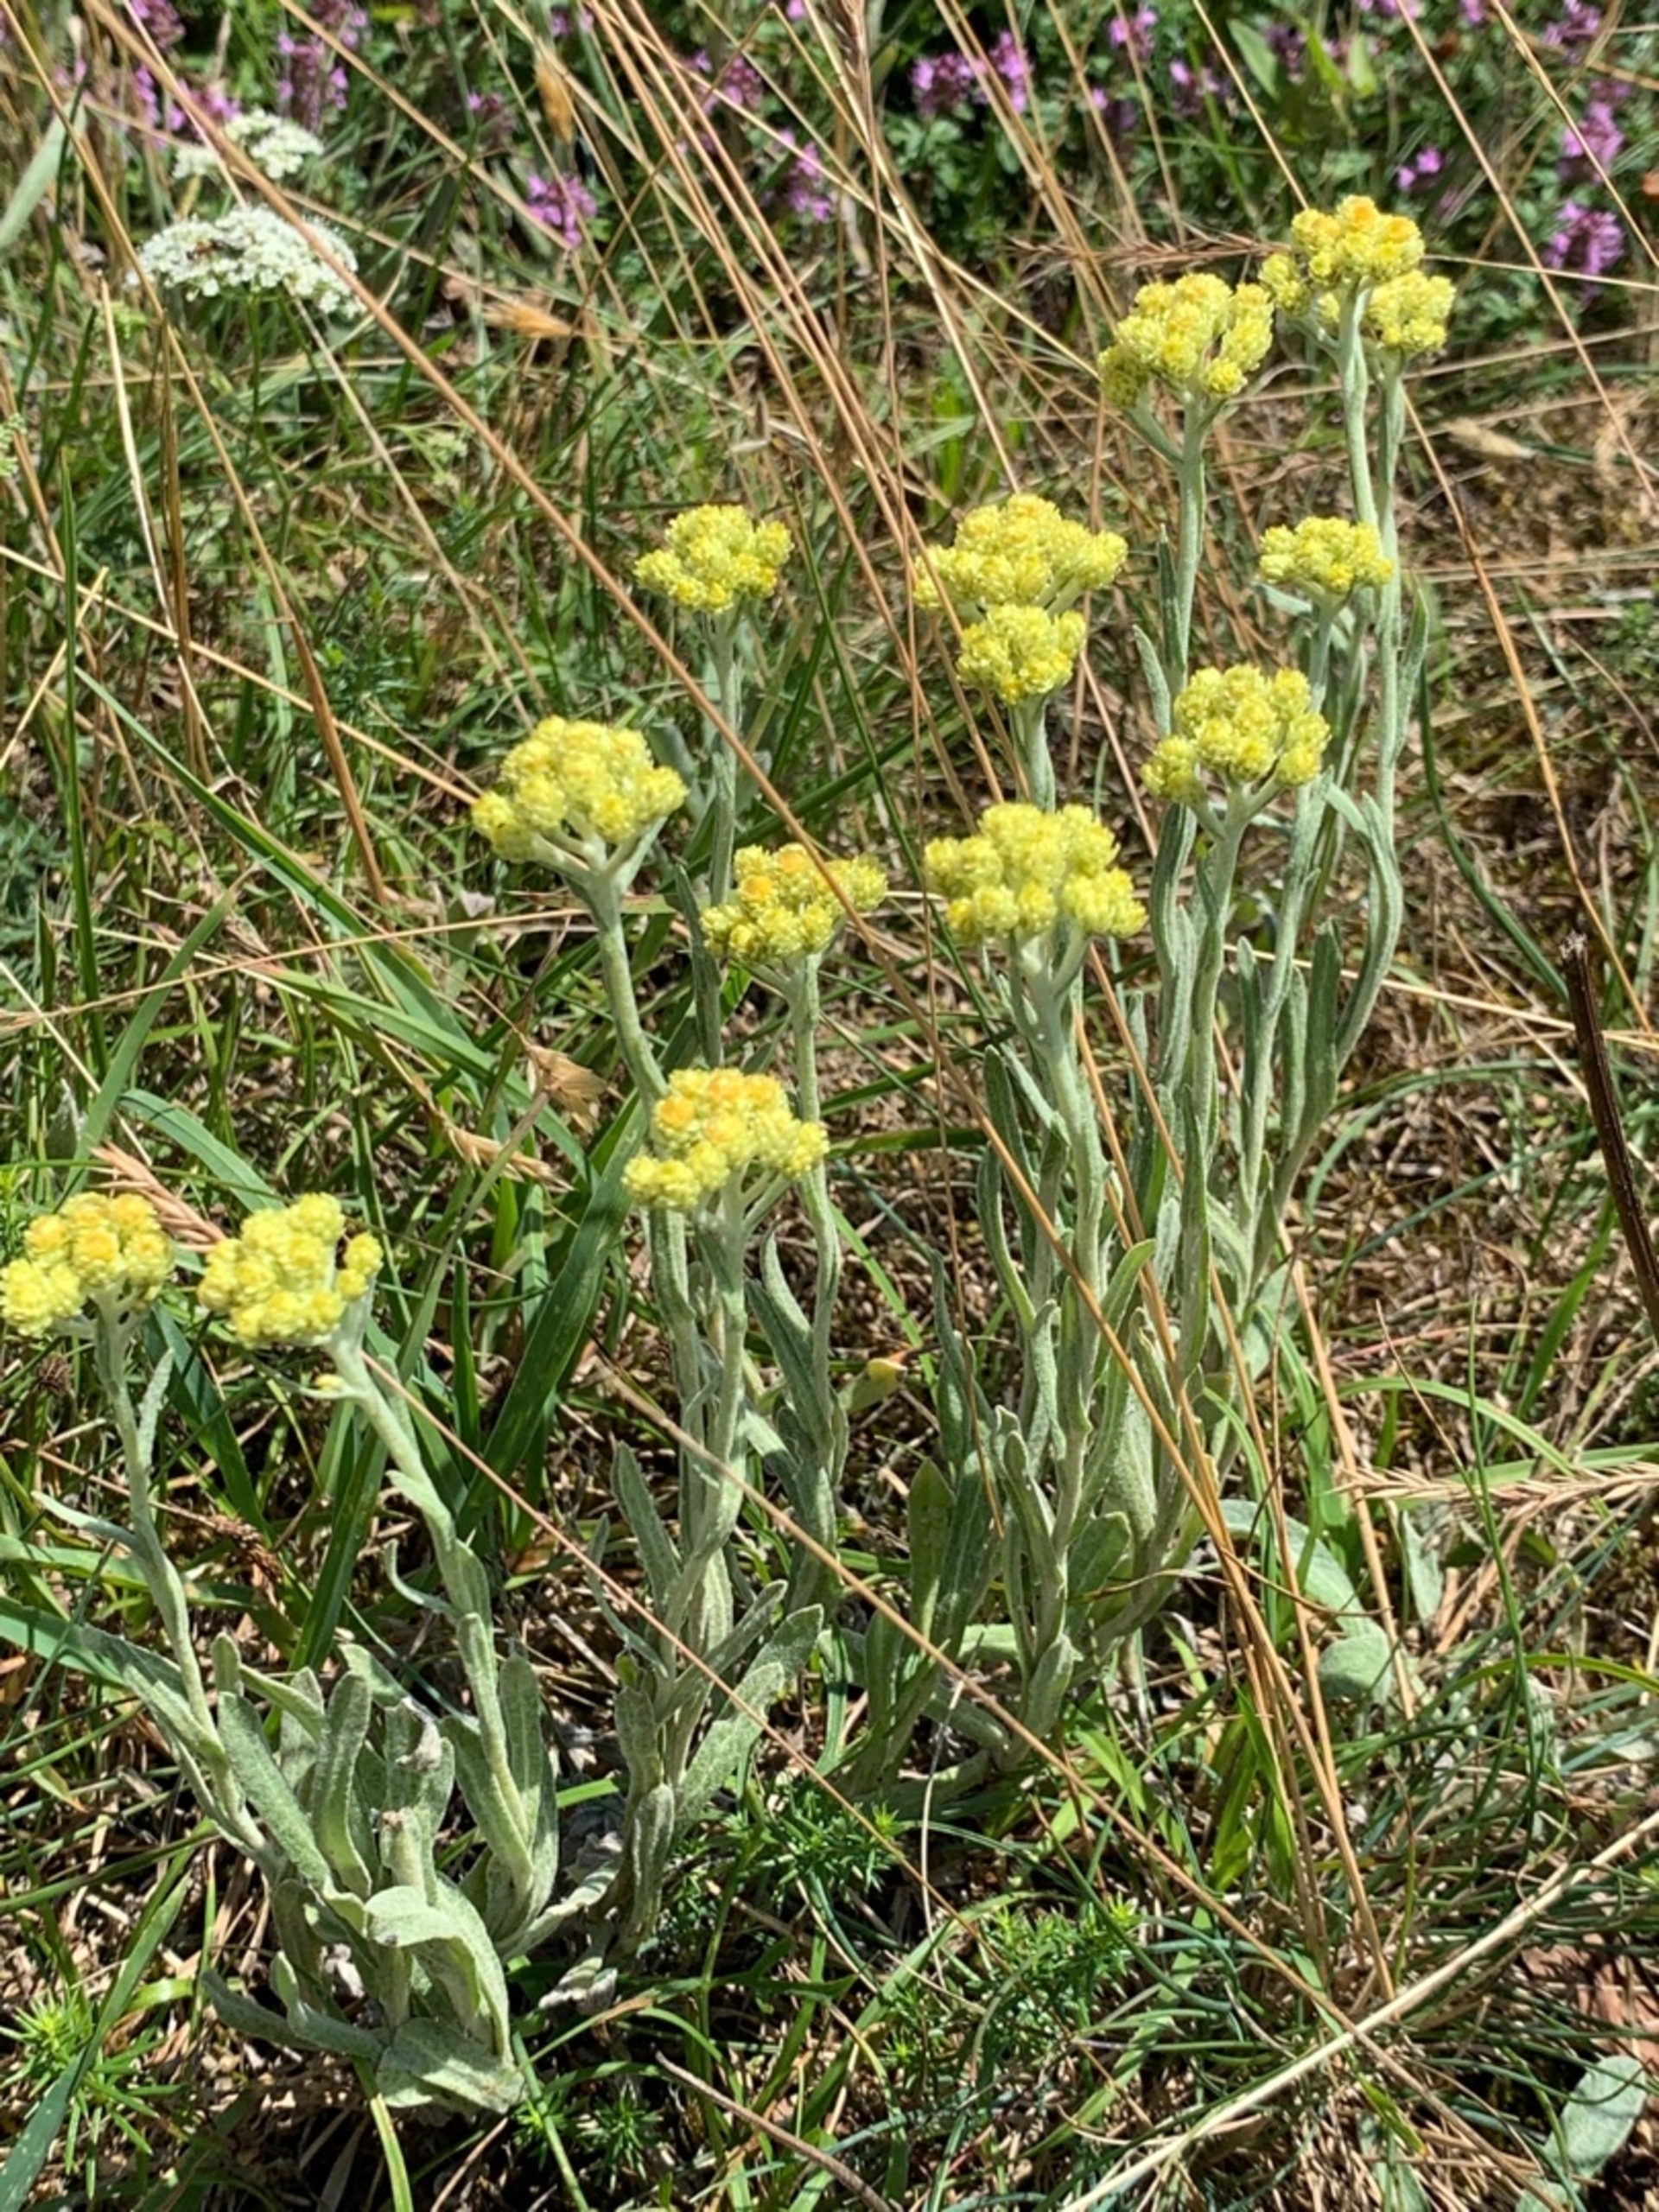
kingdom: Plantae
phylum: Tracheophyta
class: Magnoliopsida
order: Asterales
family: Asteraceae
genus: Helichrysum
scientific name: Helichrysum arenarium
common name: Gul evighedsblomst
